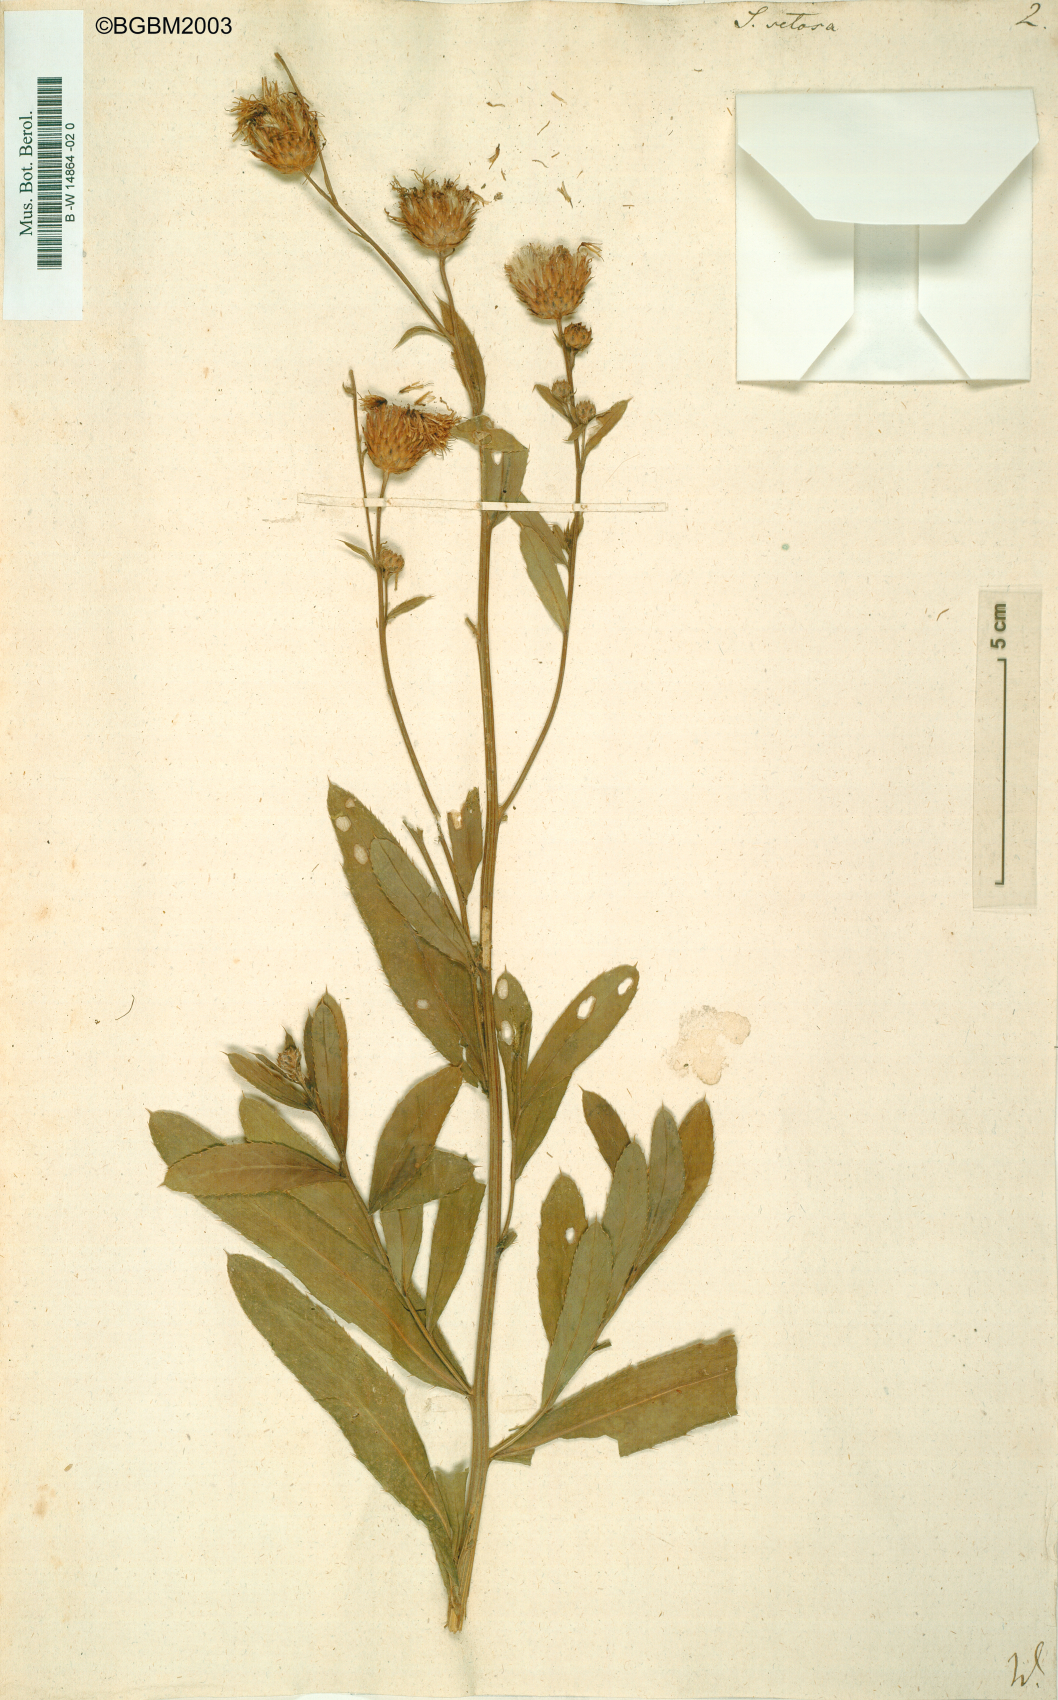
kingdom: Plantae
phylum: Tracheophyta
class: Magnoliopsida
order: Asterales
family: Asteraceae
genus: Cirsium
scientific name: Cirsium arvense
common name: Creeping thistle
